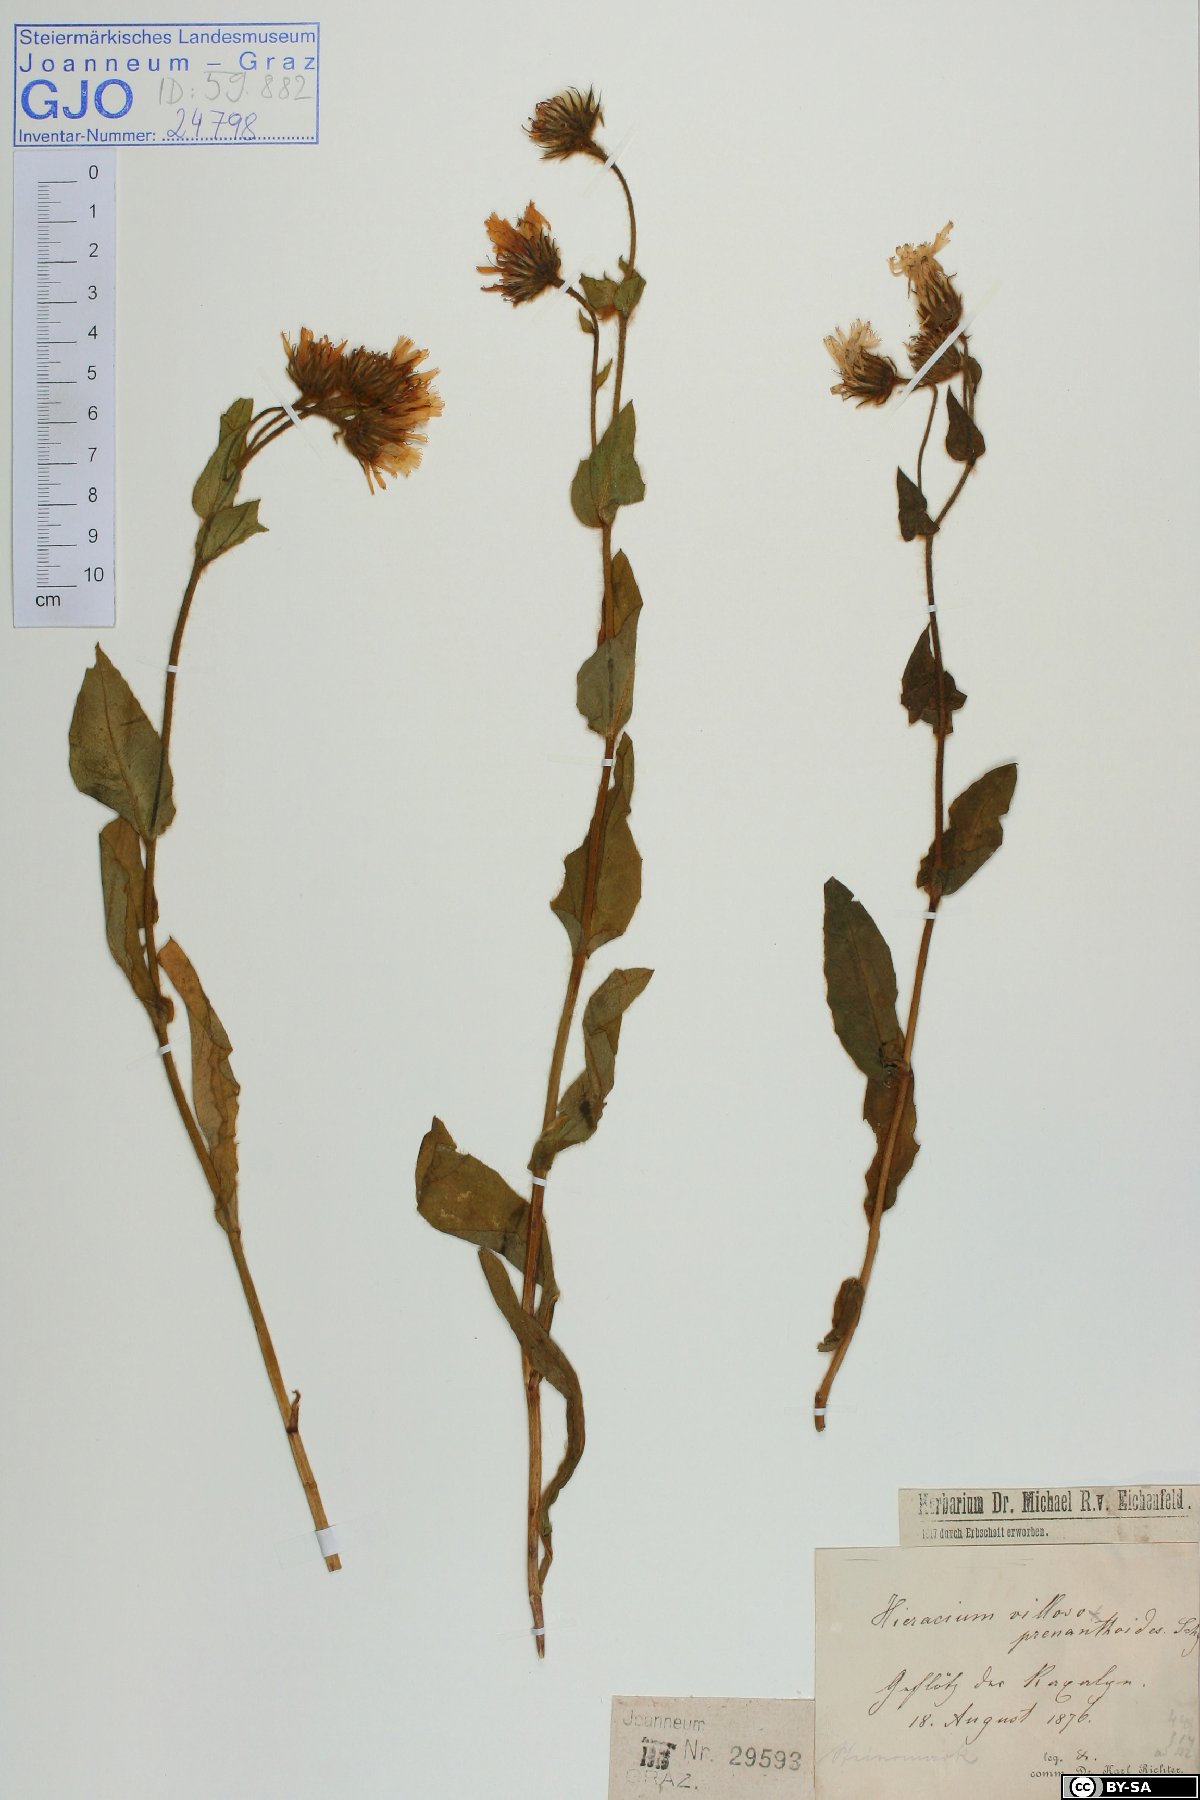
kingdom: Plantae
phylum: Tracheophyta
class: Magnoliopsida
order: Asterales
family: Asteraceae
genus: Hieracium
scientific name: Hieracium valdepilosum
